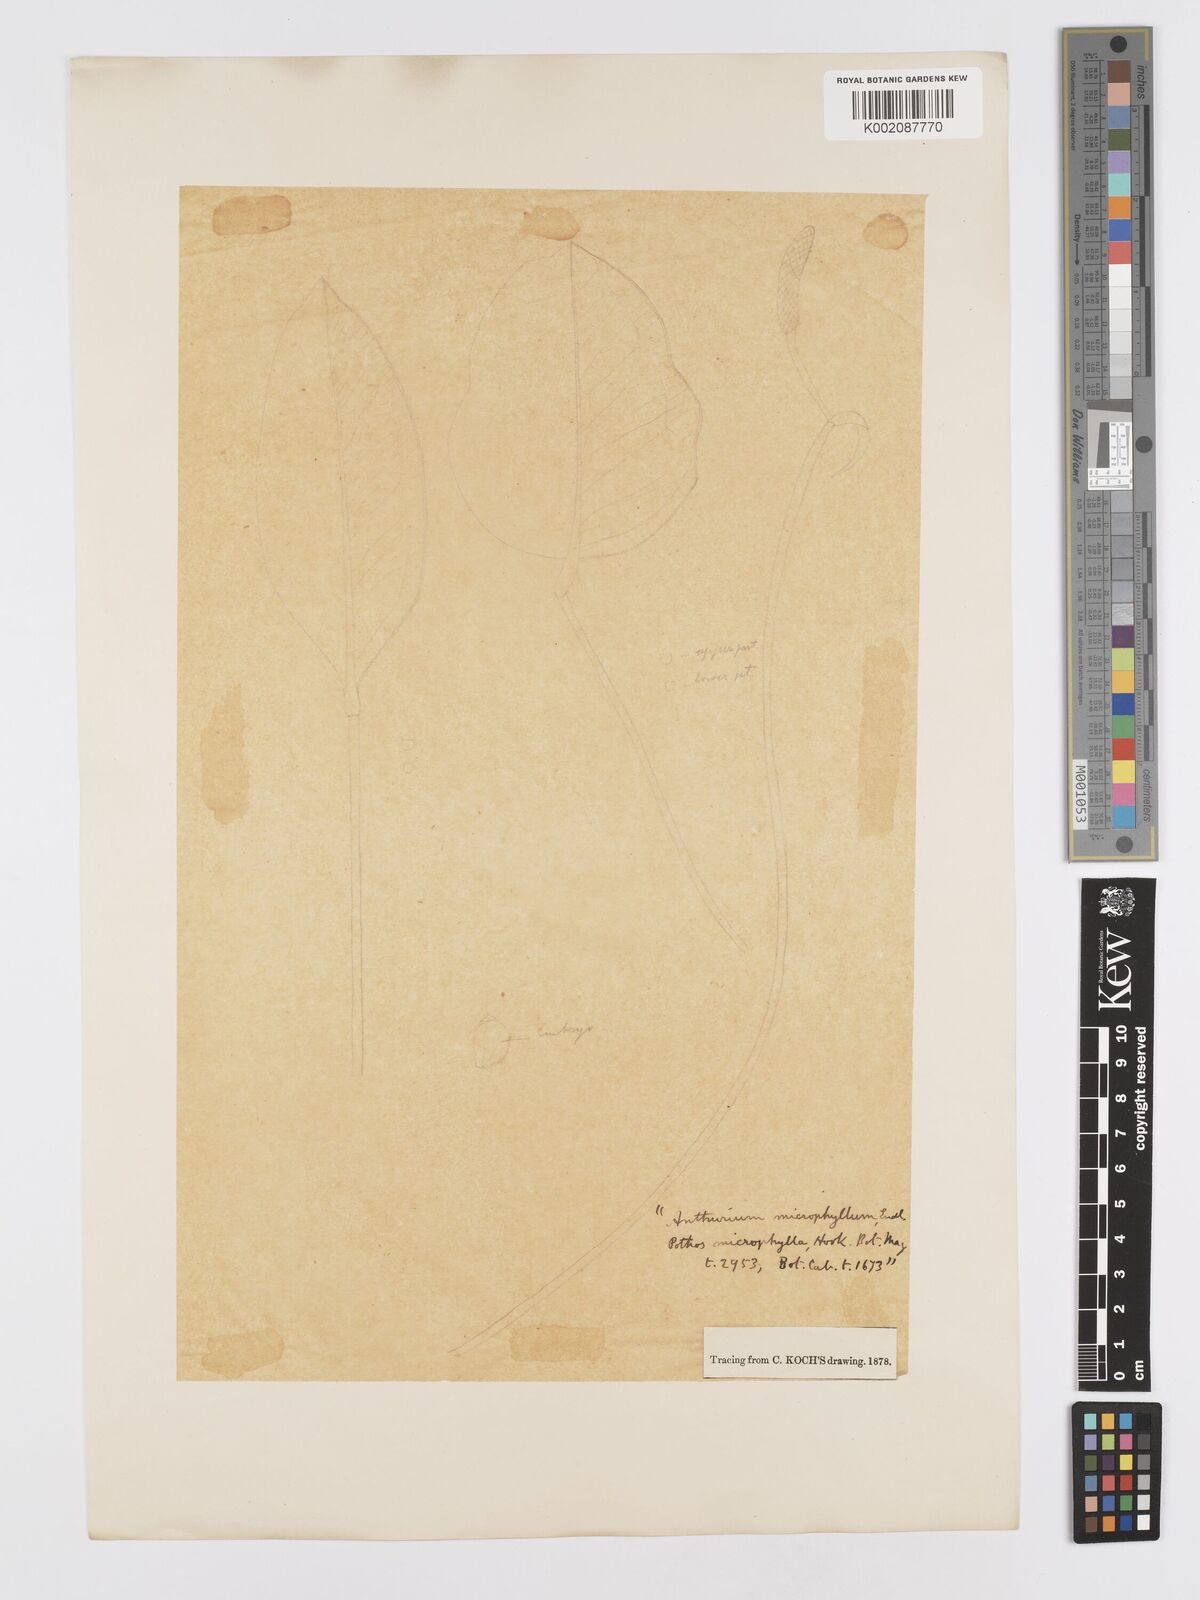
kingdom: Plantae
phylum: Tracheophyta
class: Liliopsida
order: Alismatales
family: Araceae
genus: Anthurium
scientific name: Anthurium microphyllum
